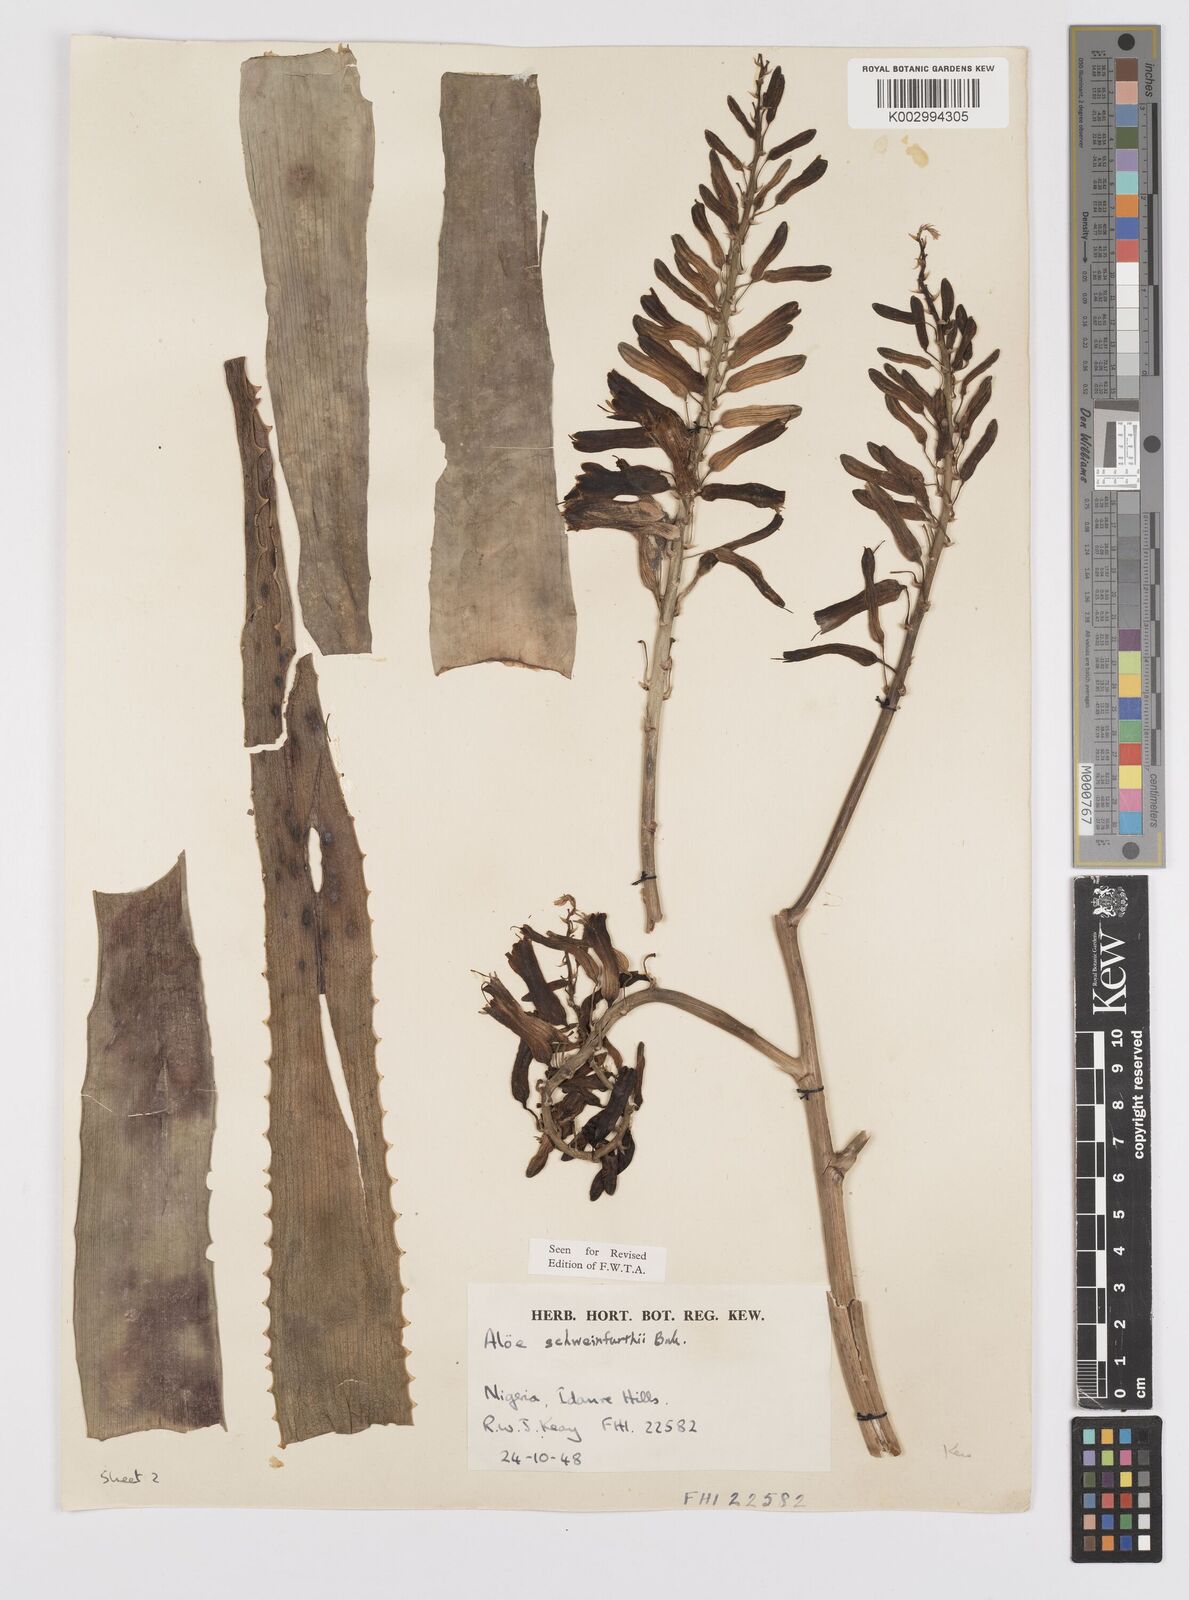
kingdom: Plantae
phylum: Tracheophyta
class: Liliopsida
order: Asparagales
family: Asphodelaceae
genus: Aloe
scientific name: Aloe schweinfurthii
